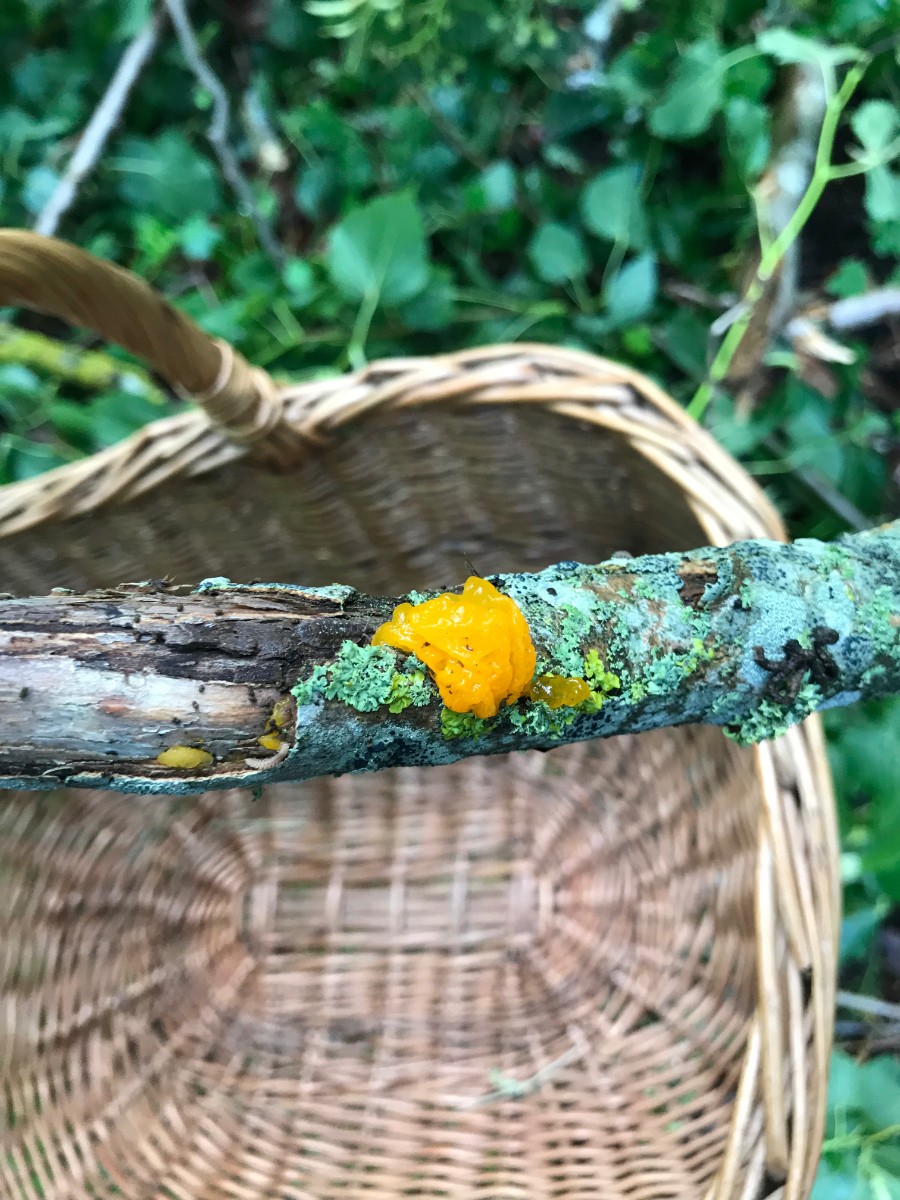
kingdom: Fungi
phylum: Basidiomycota
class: Tremellomycetes
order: Tremellales
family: Tremellaceae
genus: Tremella
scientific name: Tremella mesenterica
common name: gul bævresvamp
